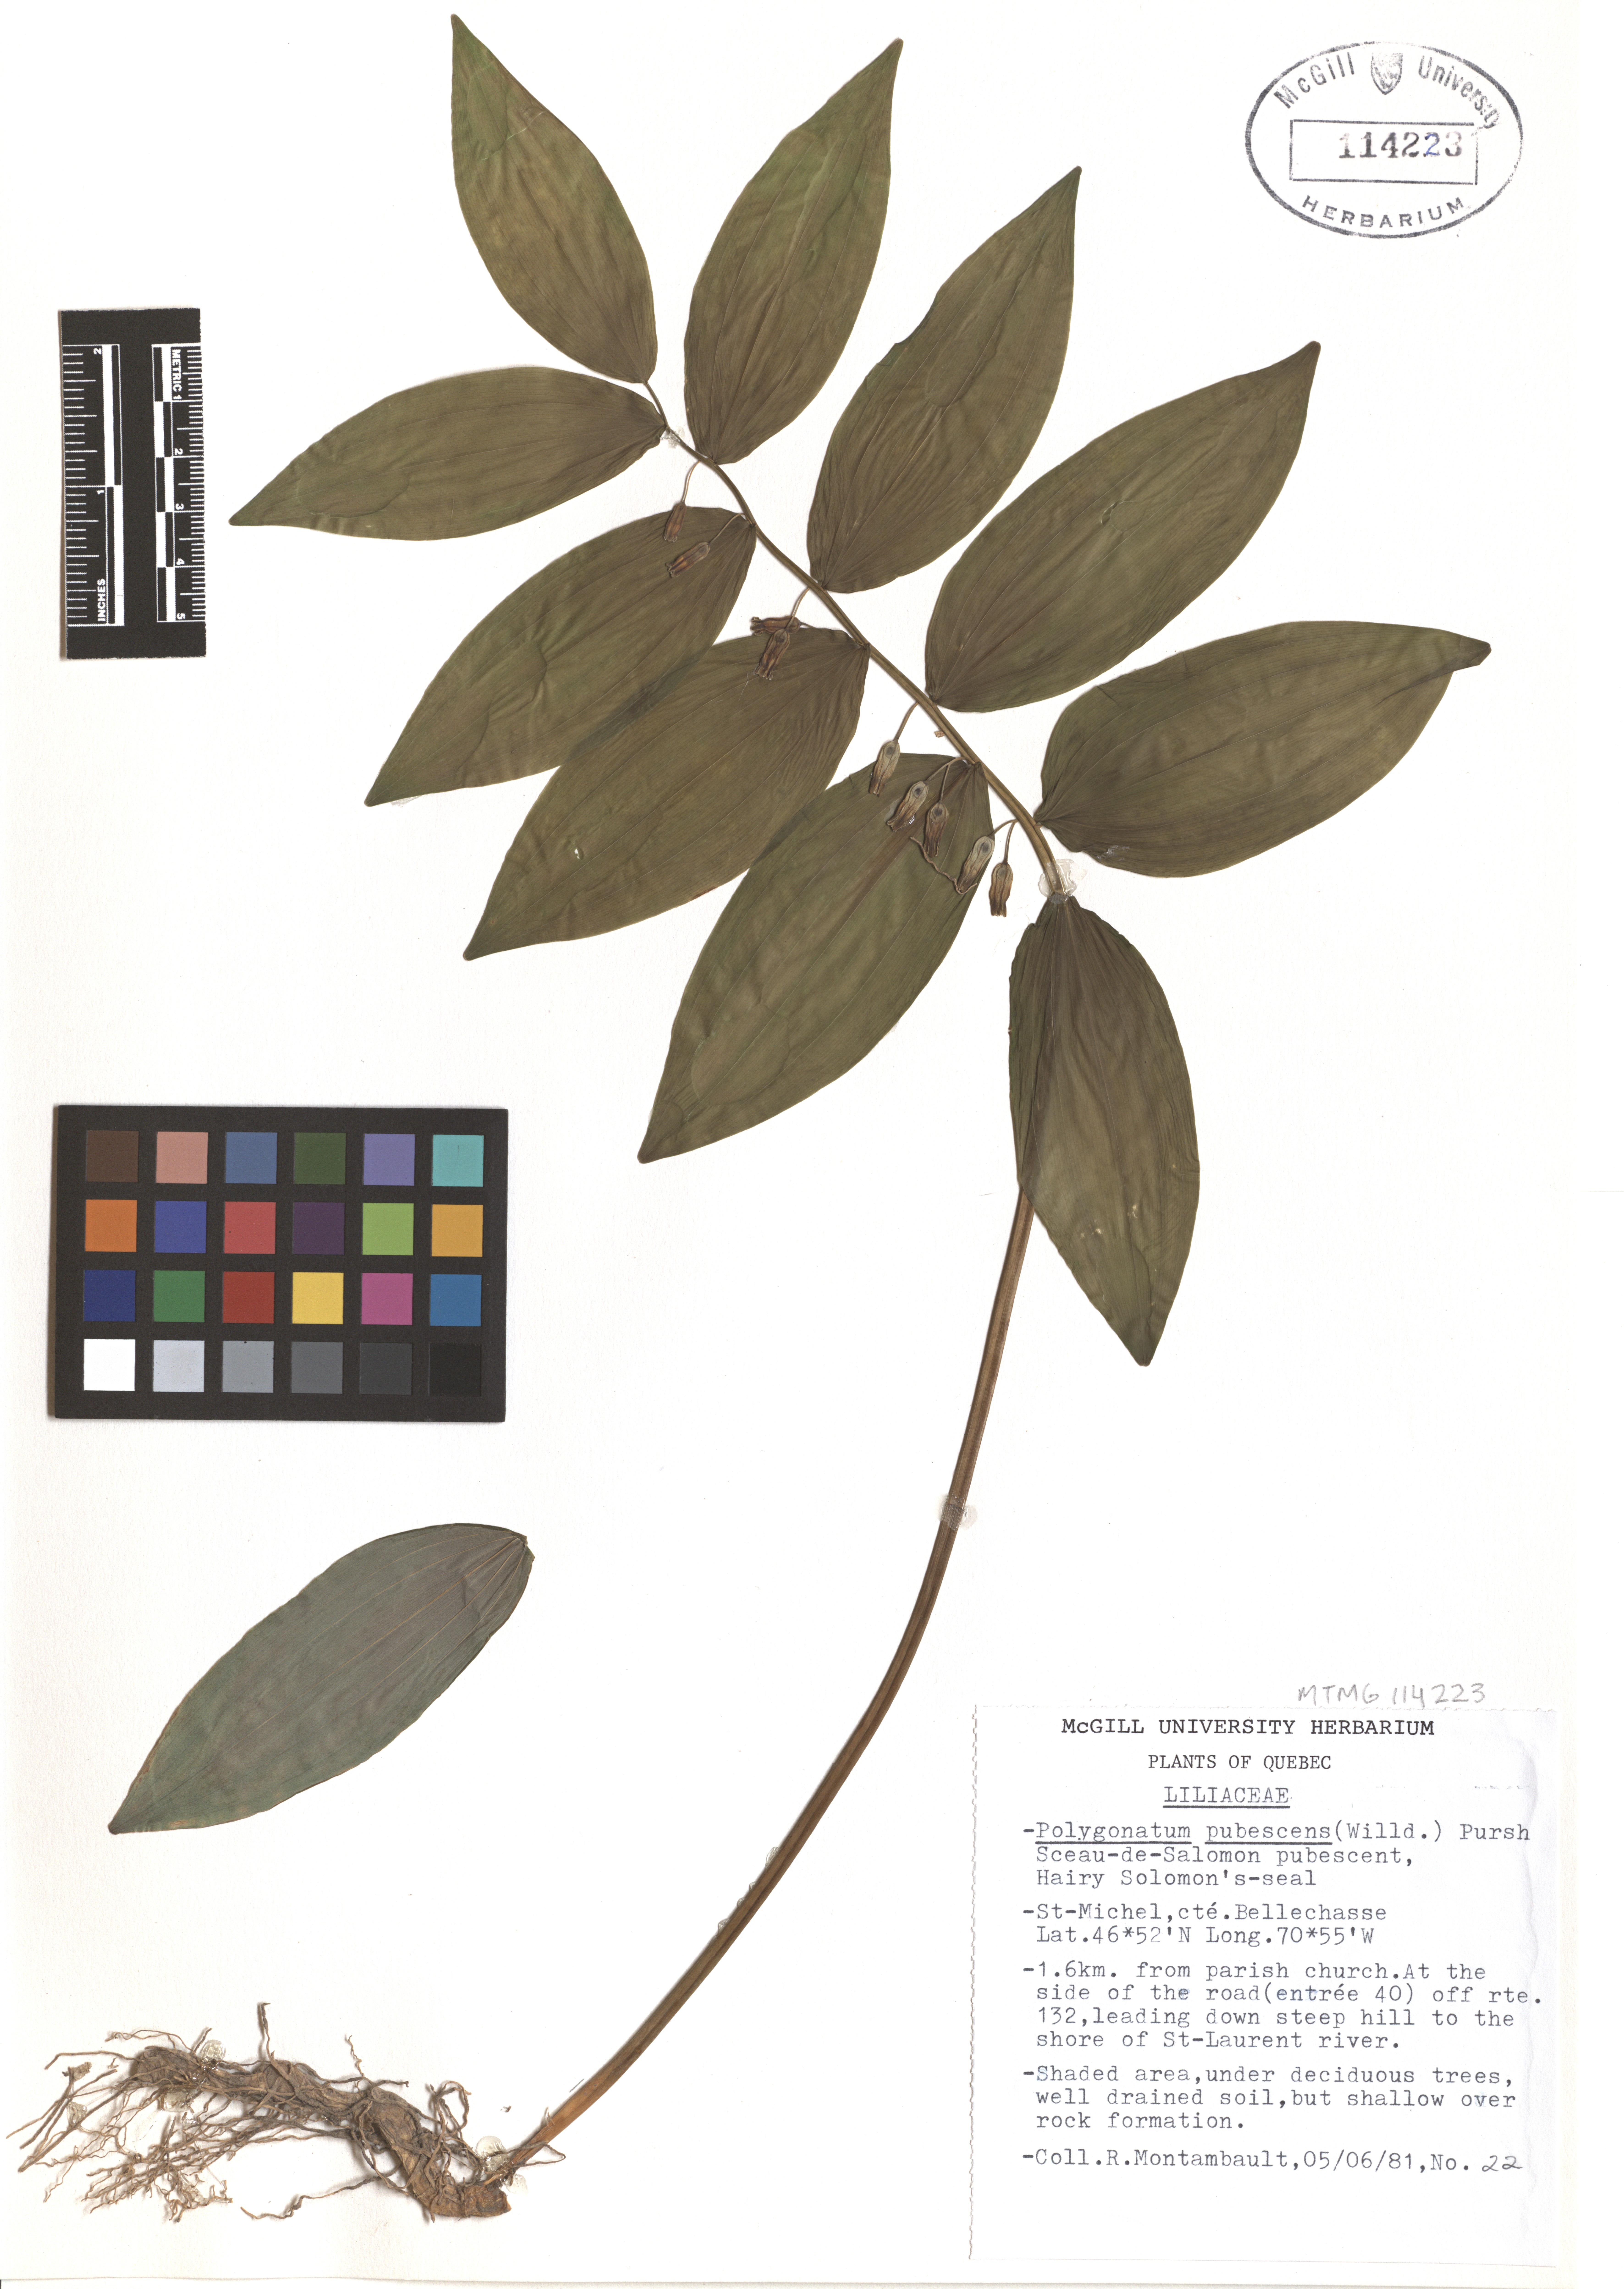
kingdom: Plantae
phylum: Tracheophyta
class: Liliopsida
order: Asparagales
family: Asparagaceae
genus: Polygonatum
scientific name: Polygonatum pubescens
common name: Downy solomon's seal
